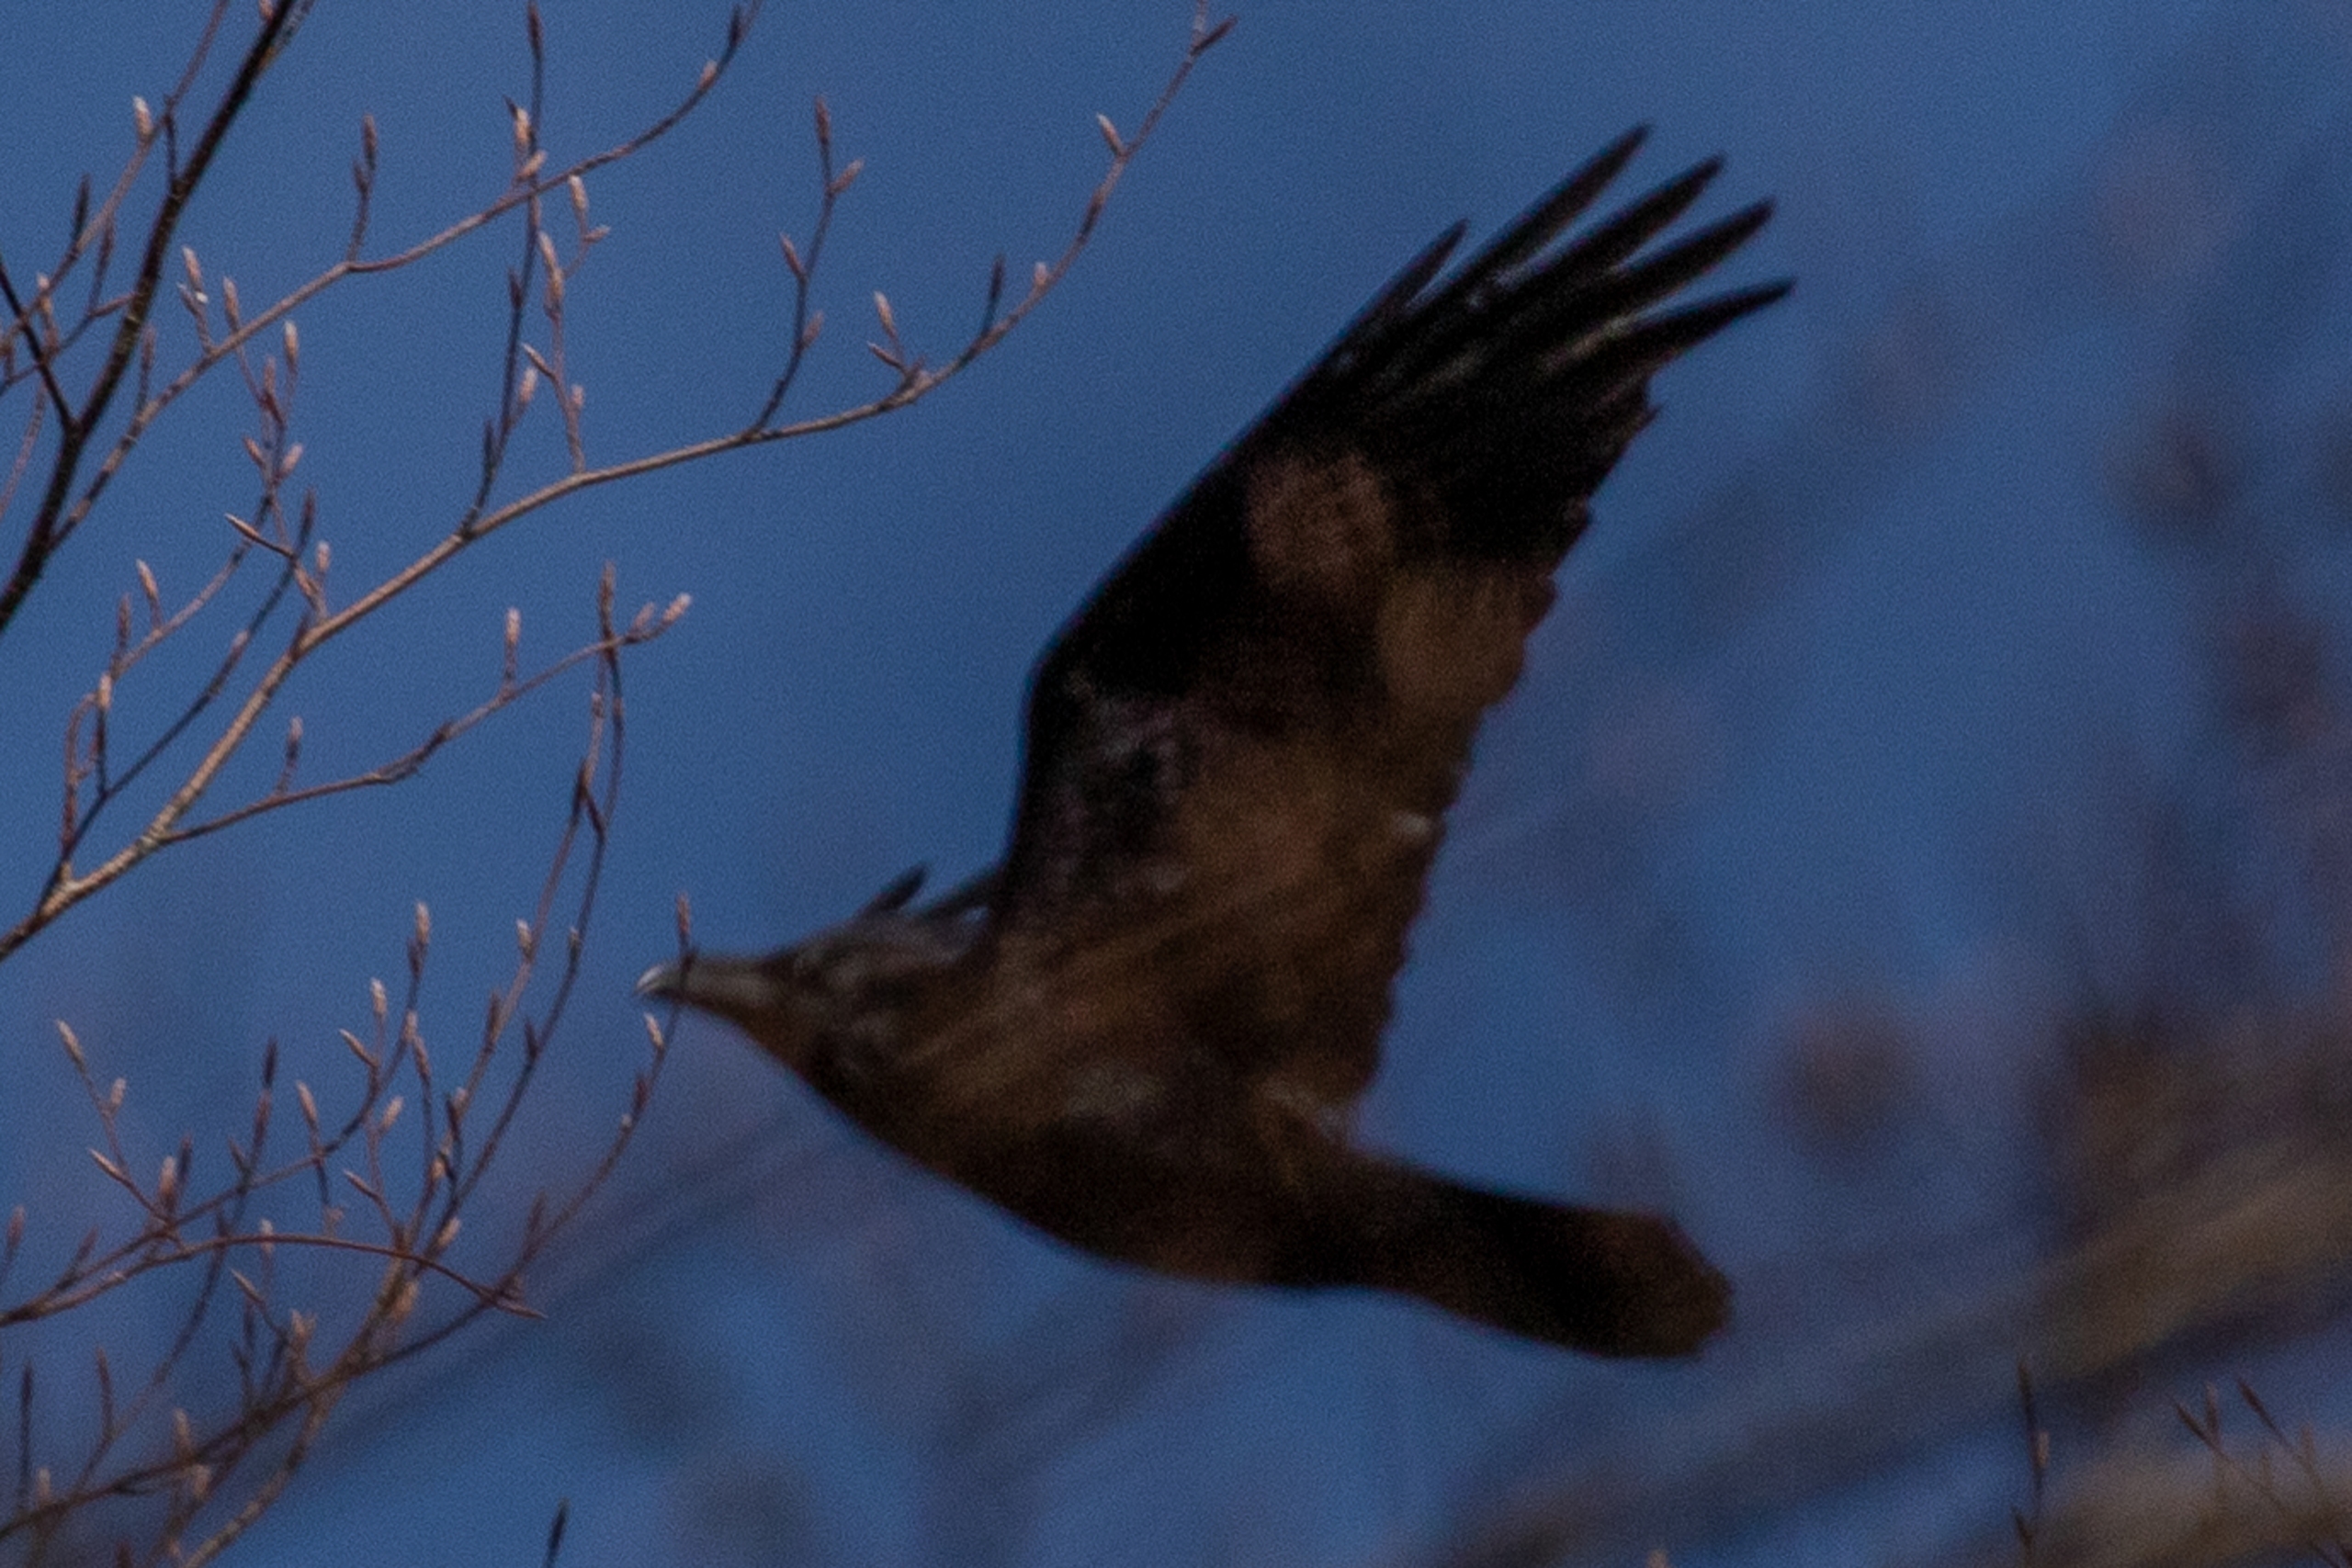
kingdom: Animalia
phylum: Chordata
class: Aves
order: Passeriformes
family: Corvidae
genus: Corvus
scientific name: Corvus corax
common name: Ravn
